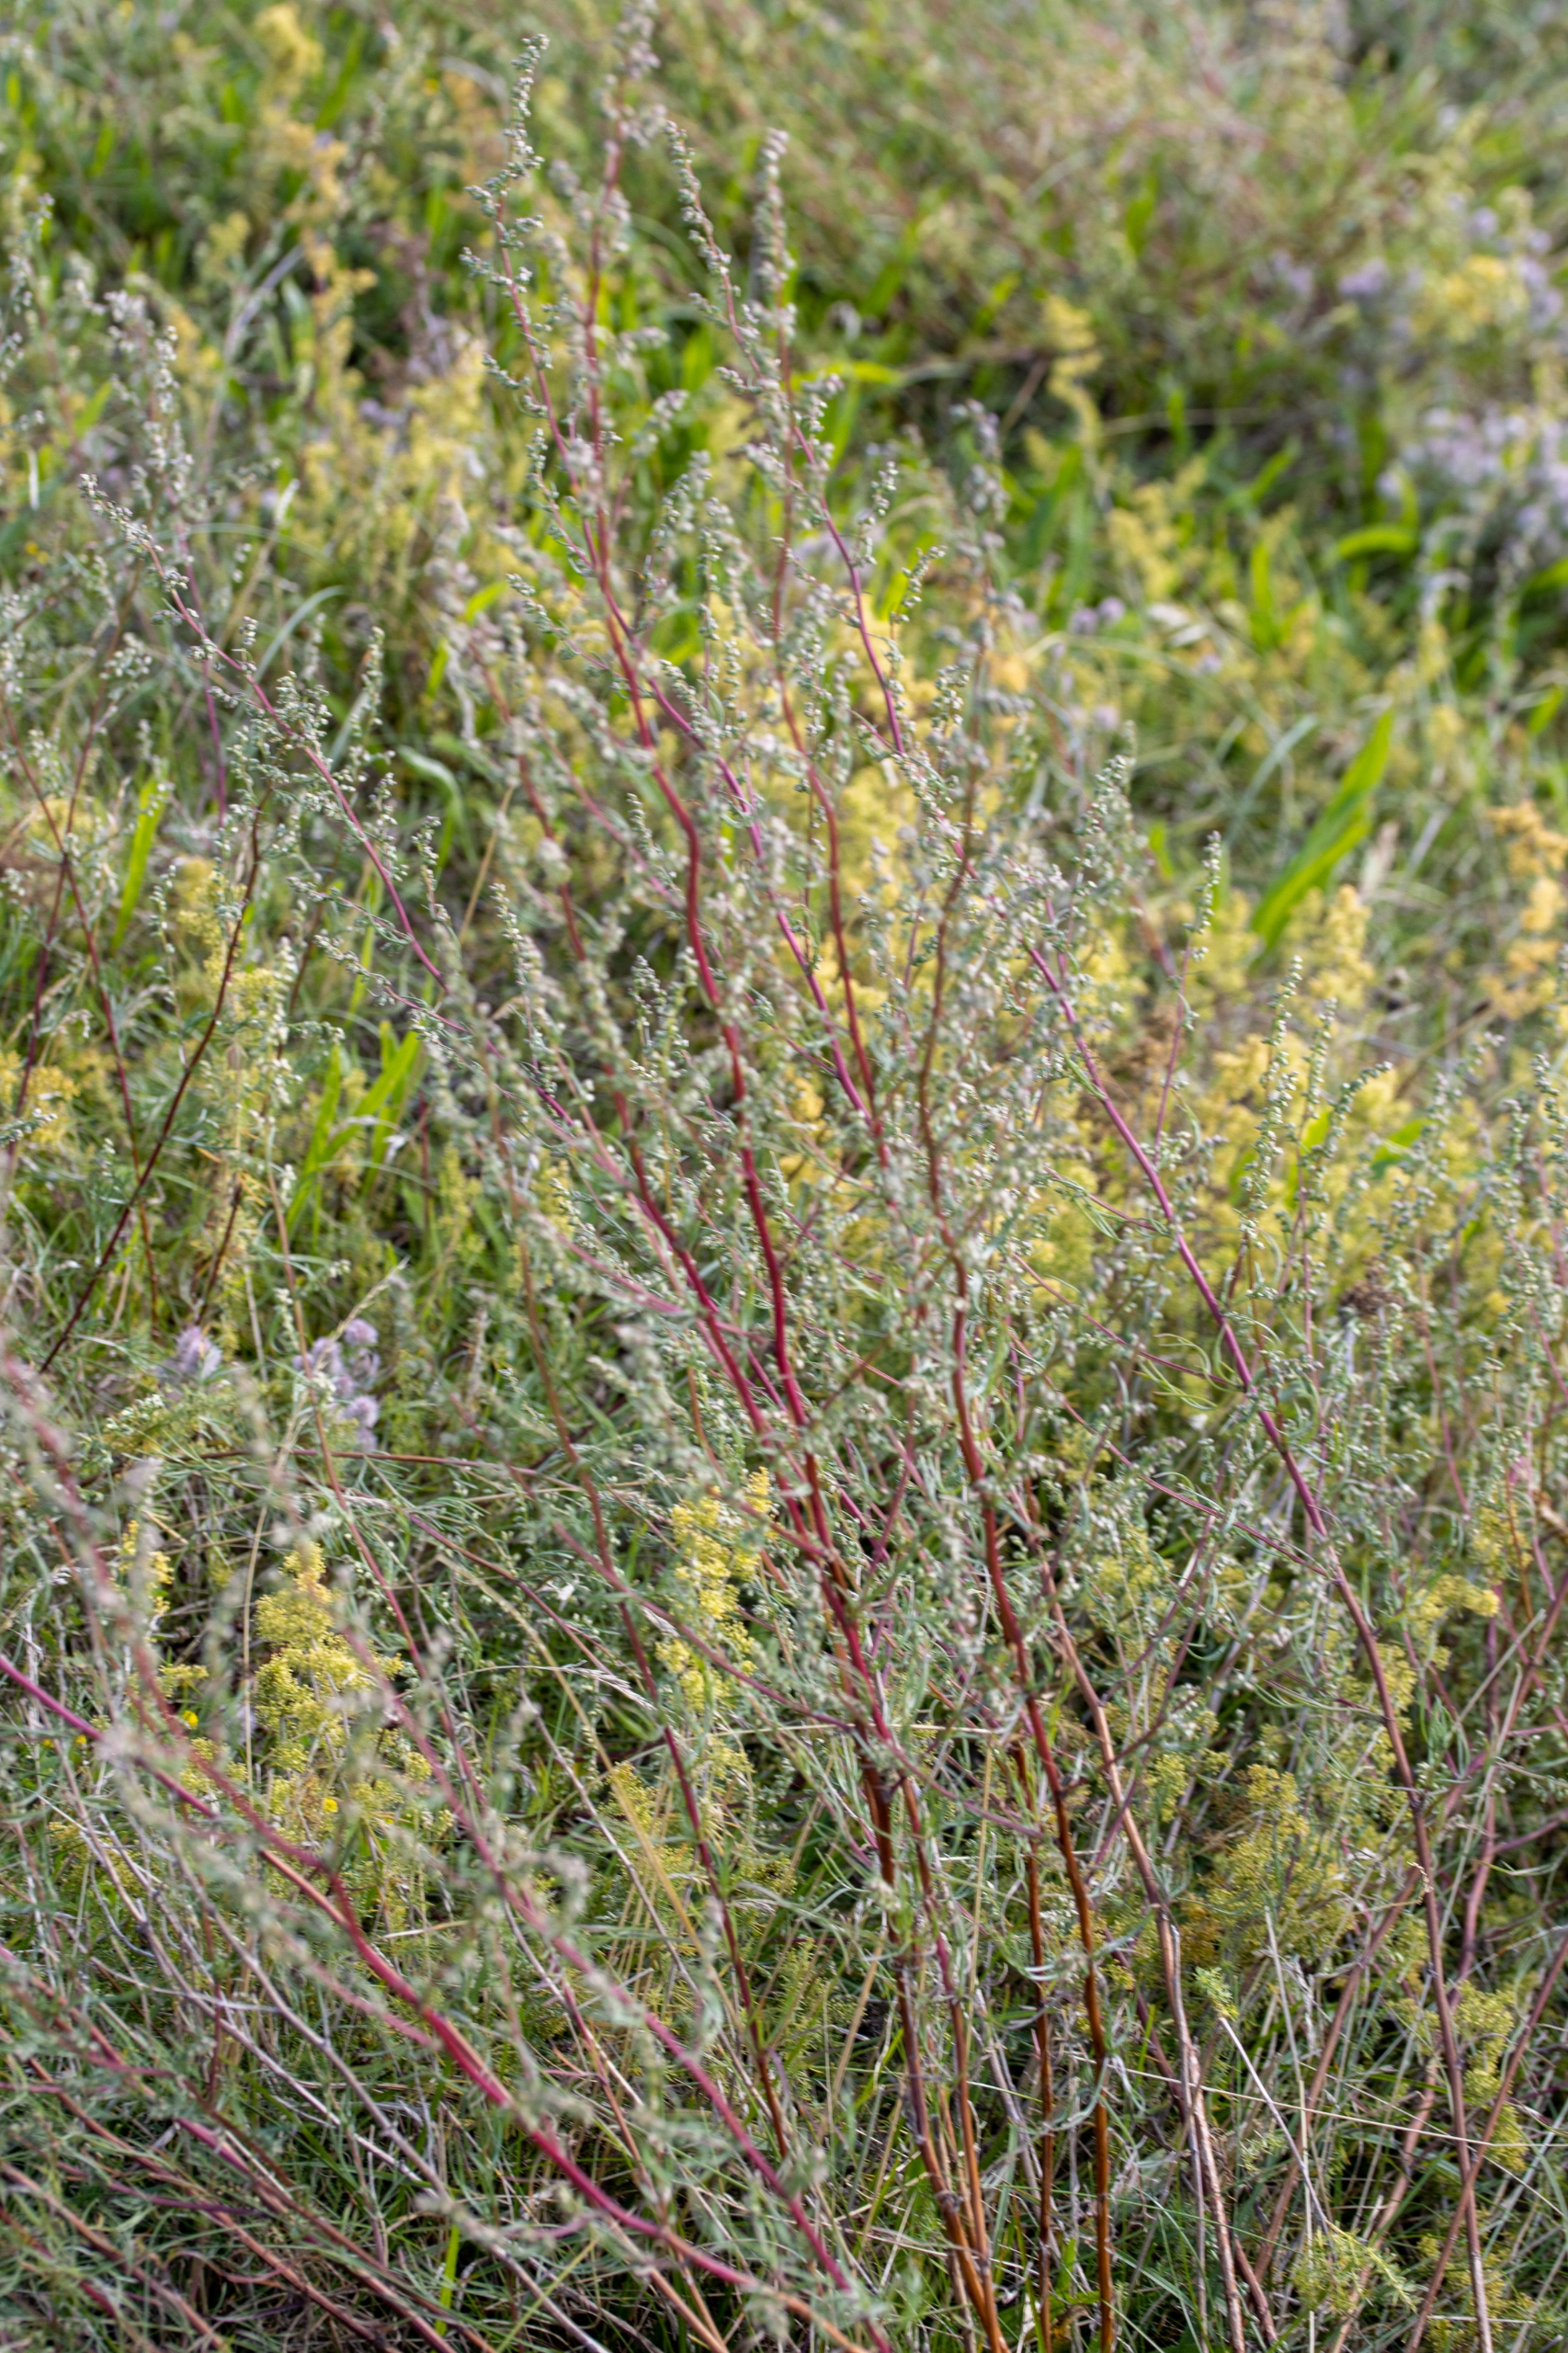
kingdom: Plantae
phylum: Tracheophyta
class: Magnoliopsida
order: Asterales
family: Asteraceae
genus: Artemisia
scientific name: Artemisia campestris
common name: Mark-bynke
